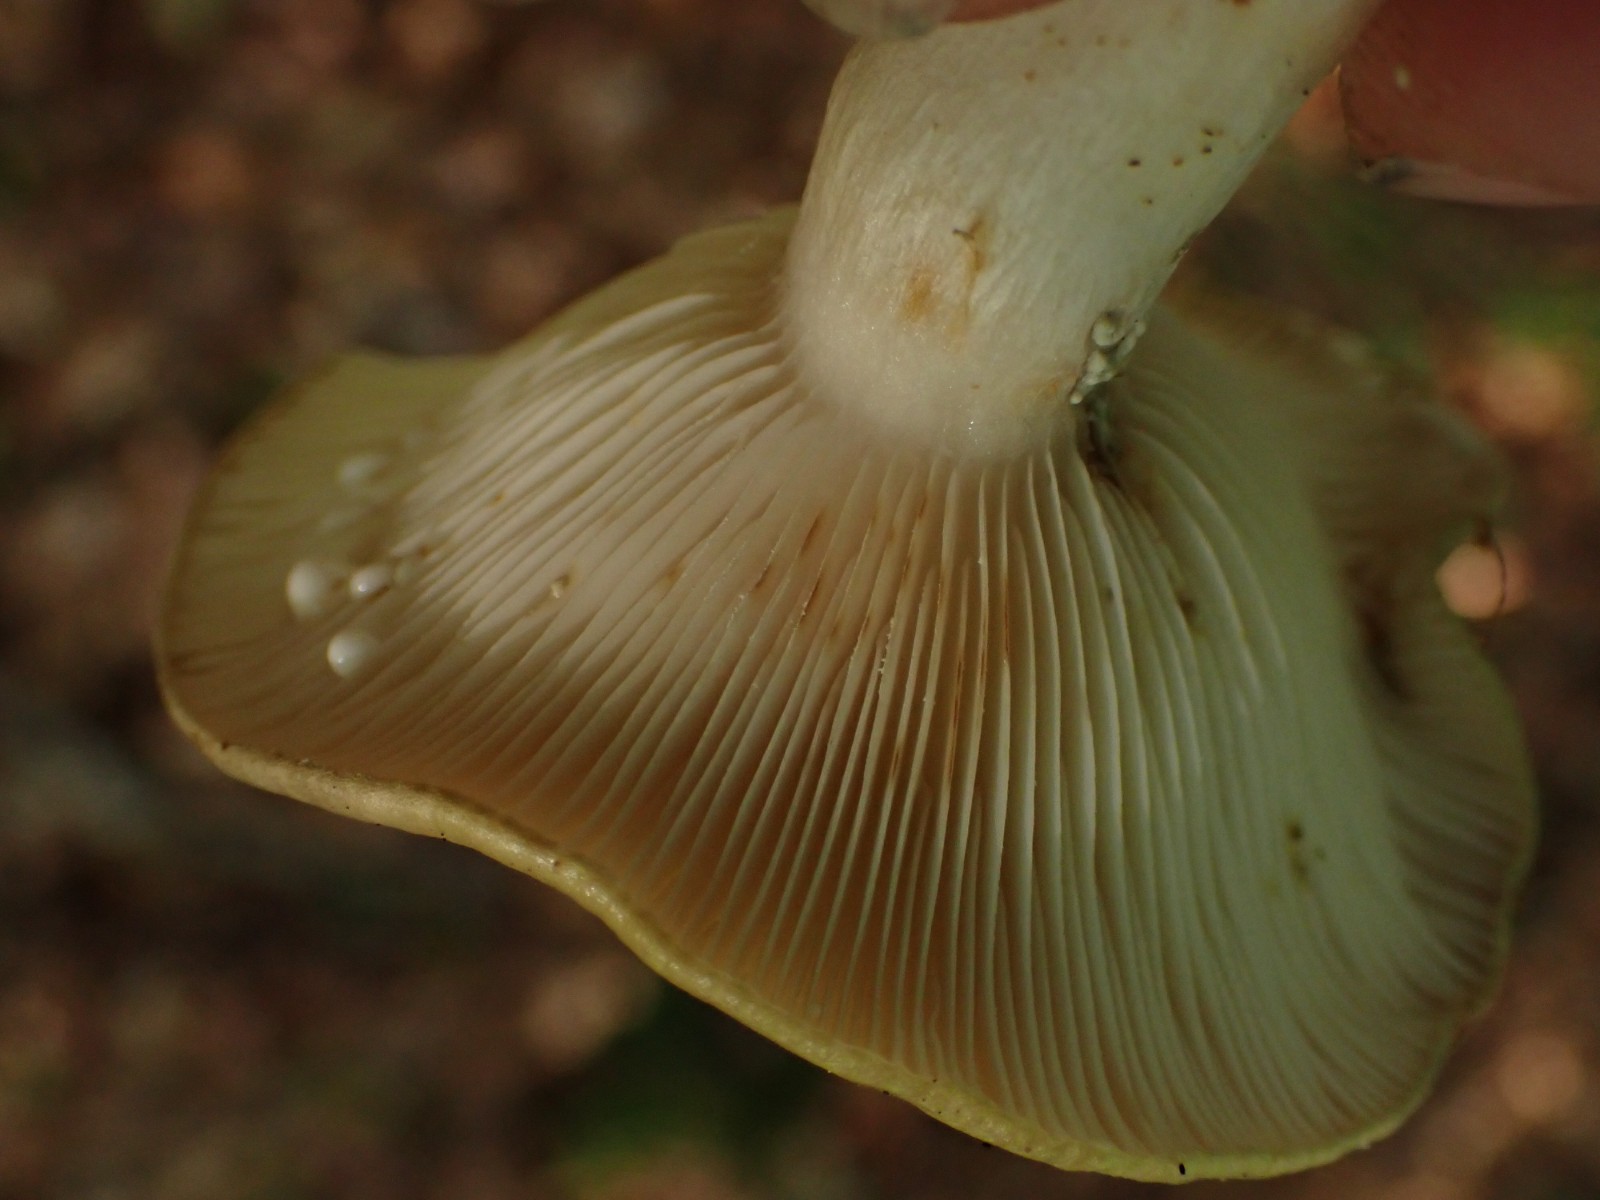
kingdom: Fungi
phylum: Basidiomycota
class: Agaricomycetes
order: Russulales
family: Russulaceae
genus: Lactarius
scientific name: Lactarius blennius
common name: dråbeplettet mælkehat
